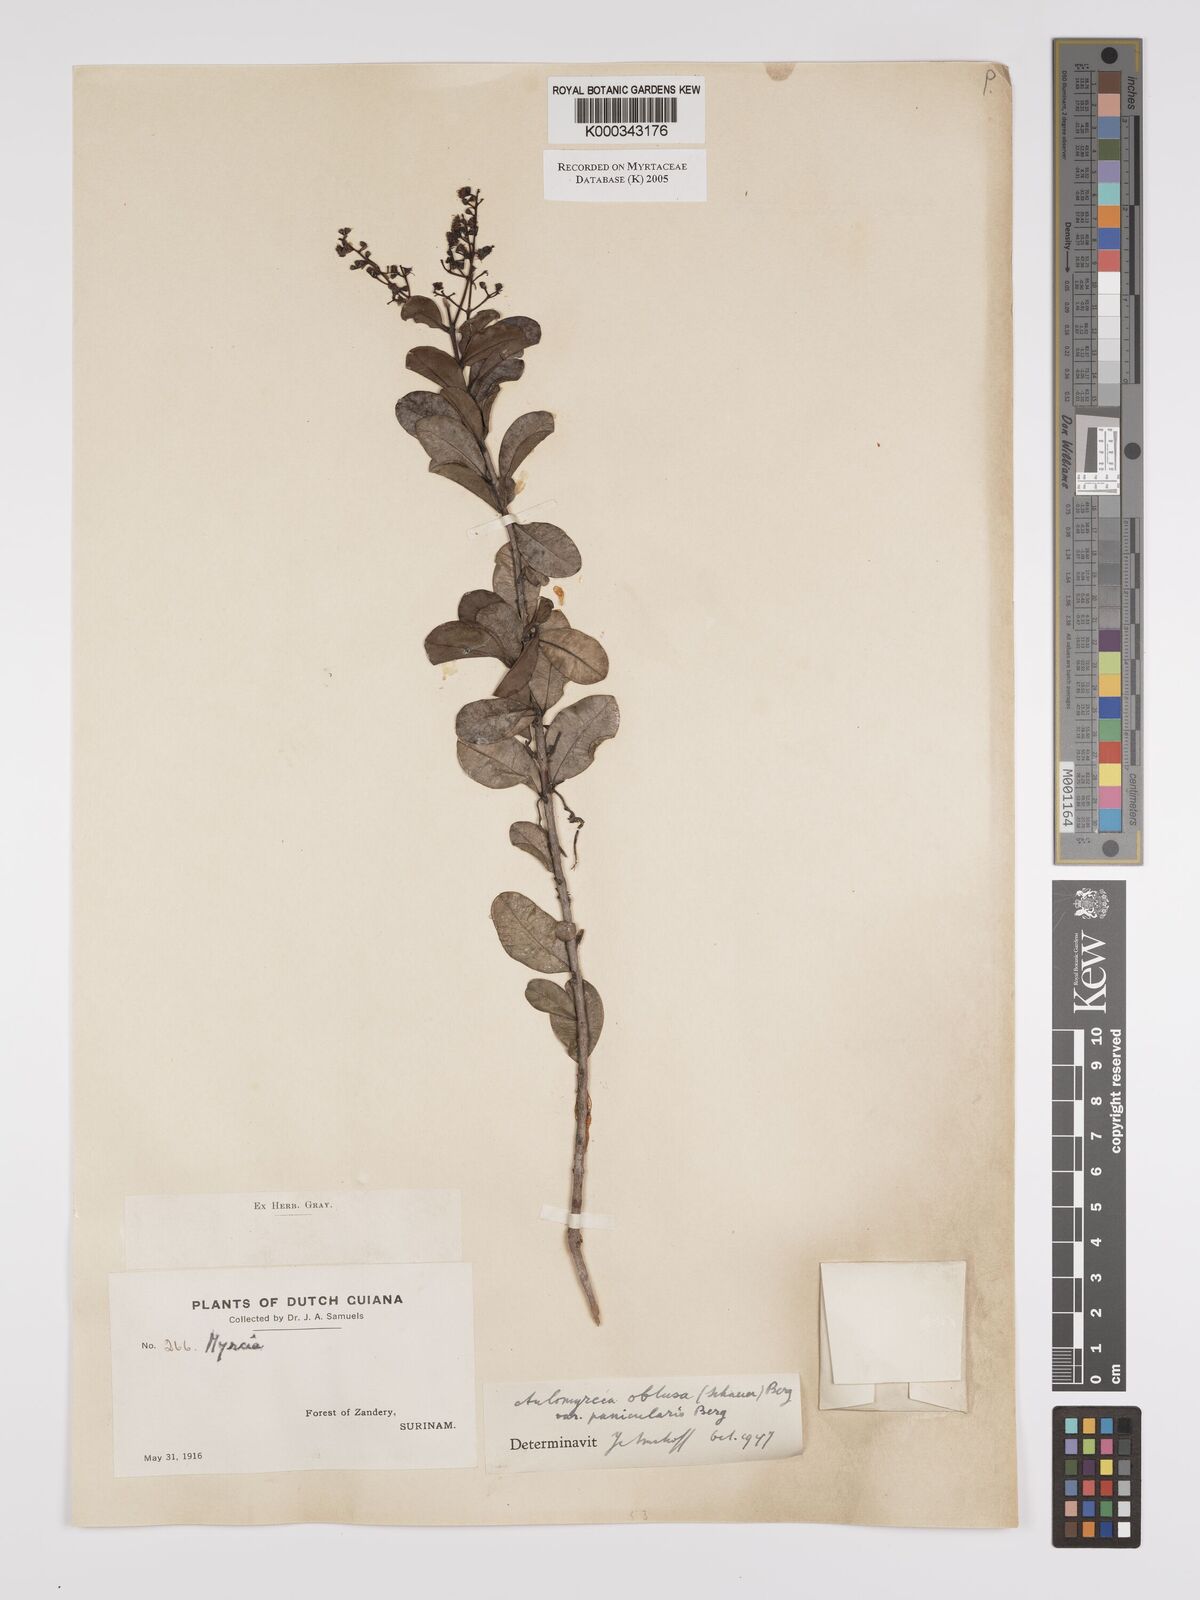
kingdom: Plantae
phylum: Tracheophyta
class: Magnoliopsida
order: Myrtales
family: Myrtaceae
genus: Myrcia
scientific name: Myrcia guianensis
